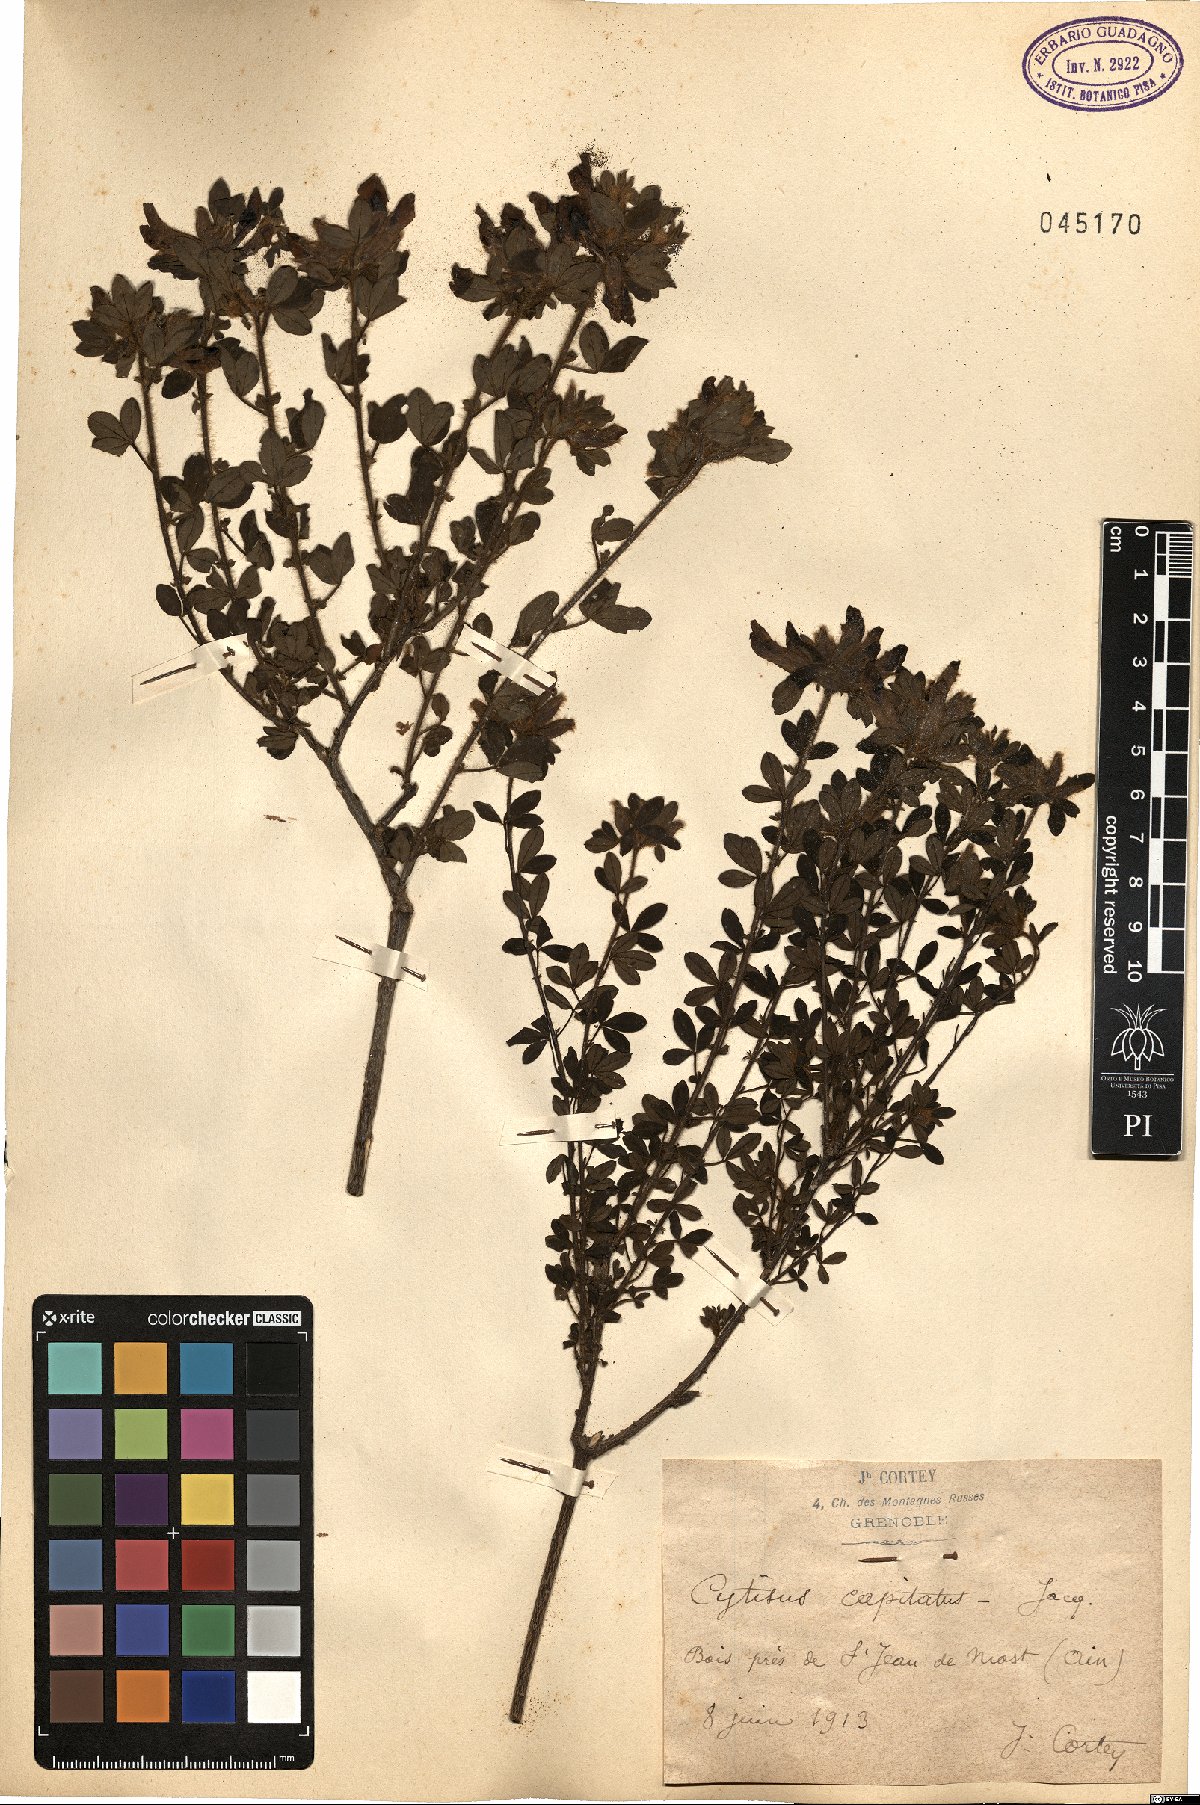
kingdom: Plantae
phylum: Tracheophyta
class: Magnoliopsida
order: Fabales
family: Fabaceae
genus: Chamaecytisus
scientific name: Chamaecytisus hirsutus
